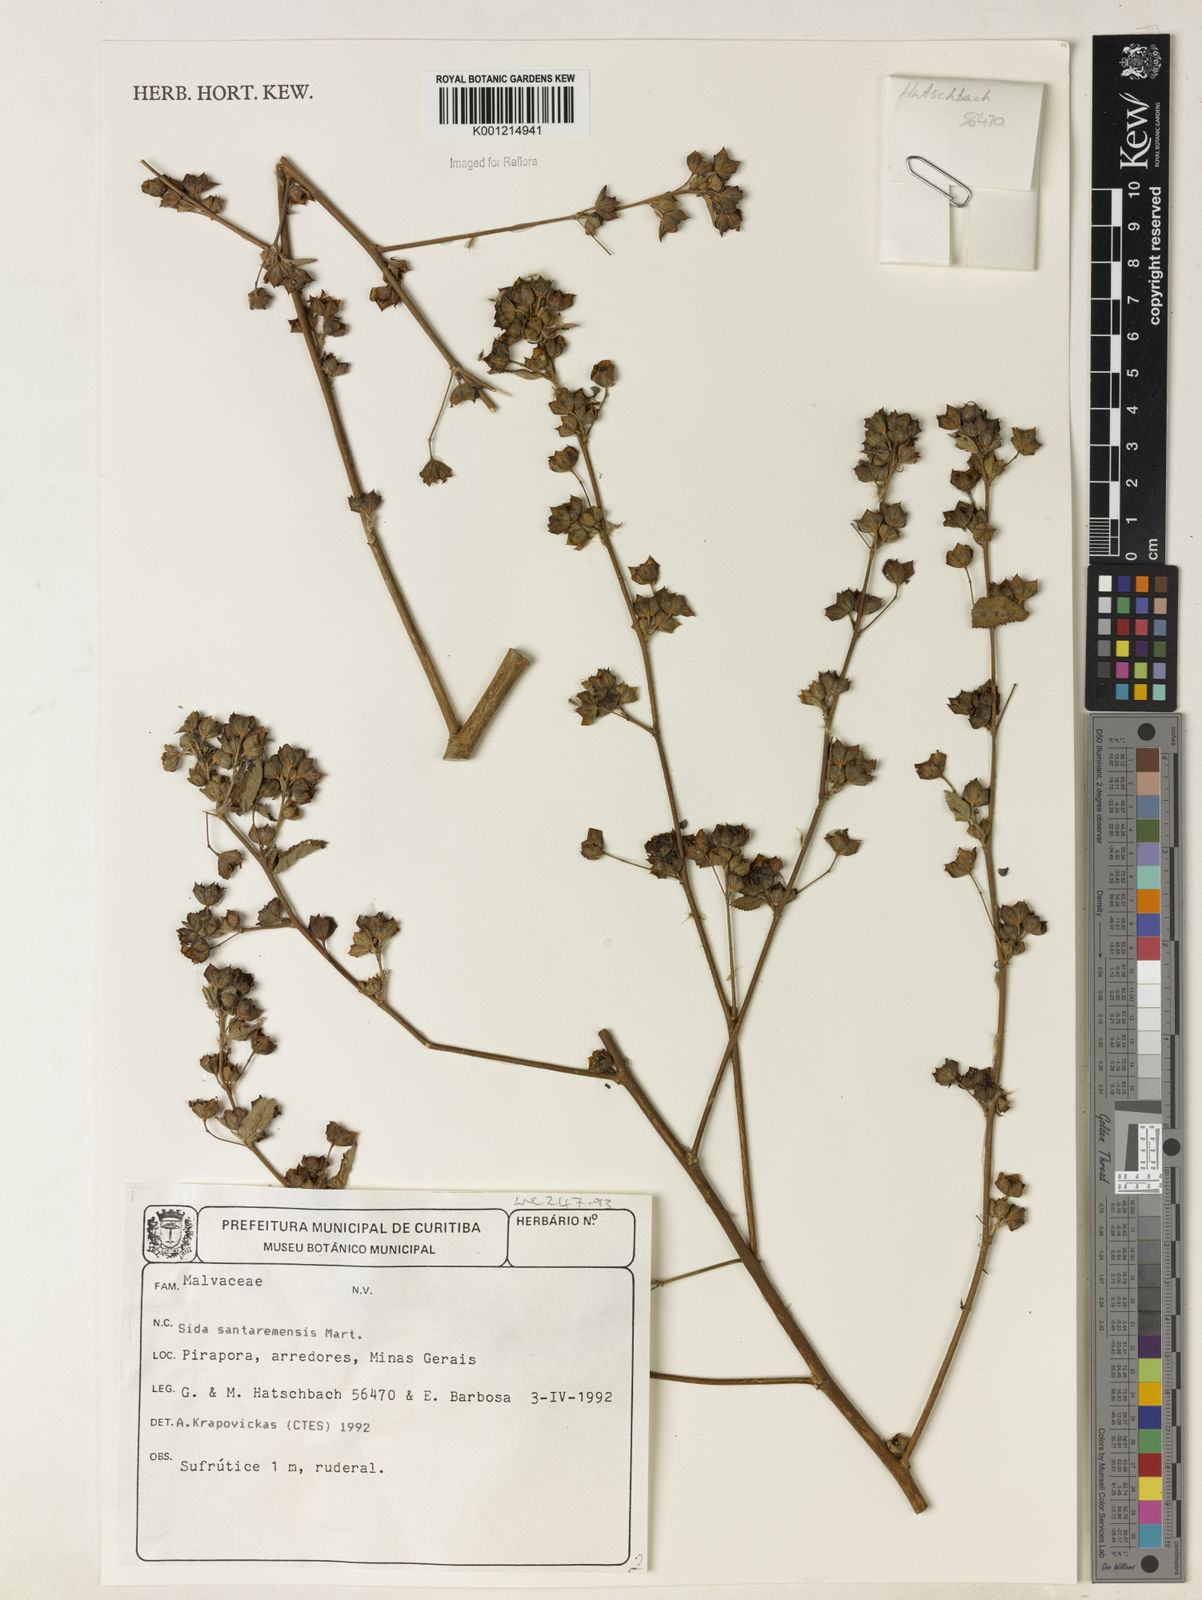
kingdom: Plantae
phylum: Tracheophyta
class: Magnoliopsida
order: Malvales
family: Malvaceae
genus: Sida
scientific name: Sida santaremensis
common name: Moth fanpetals
